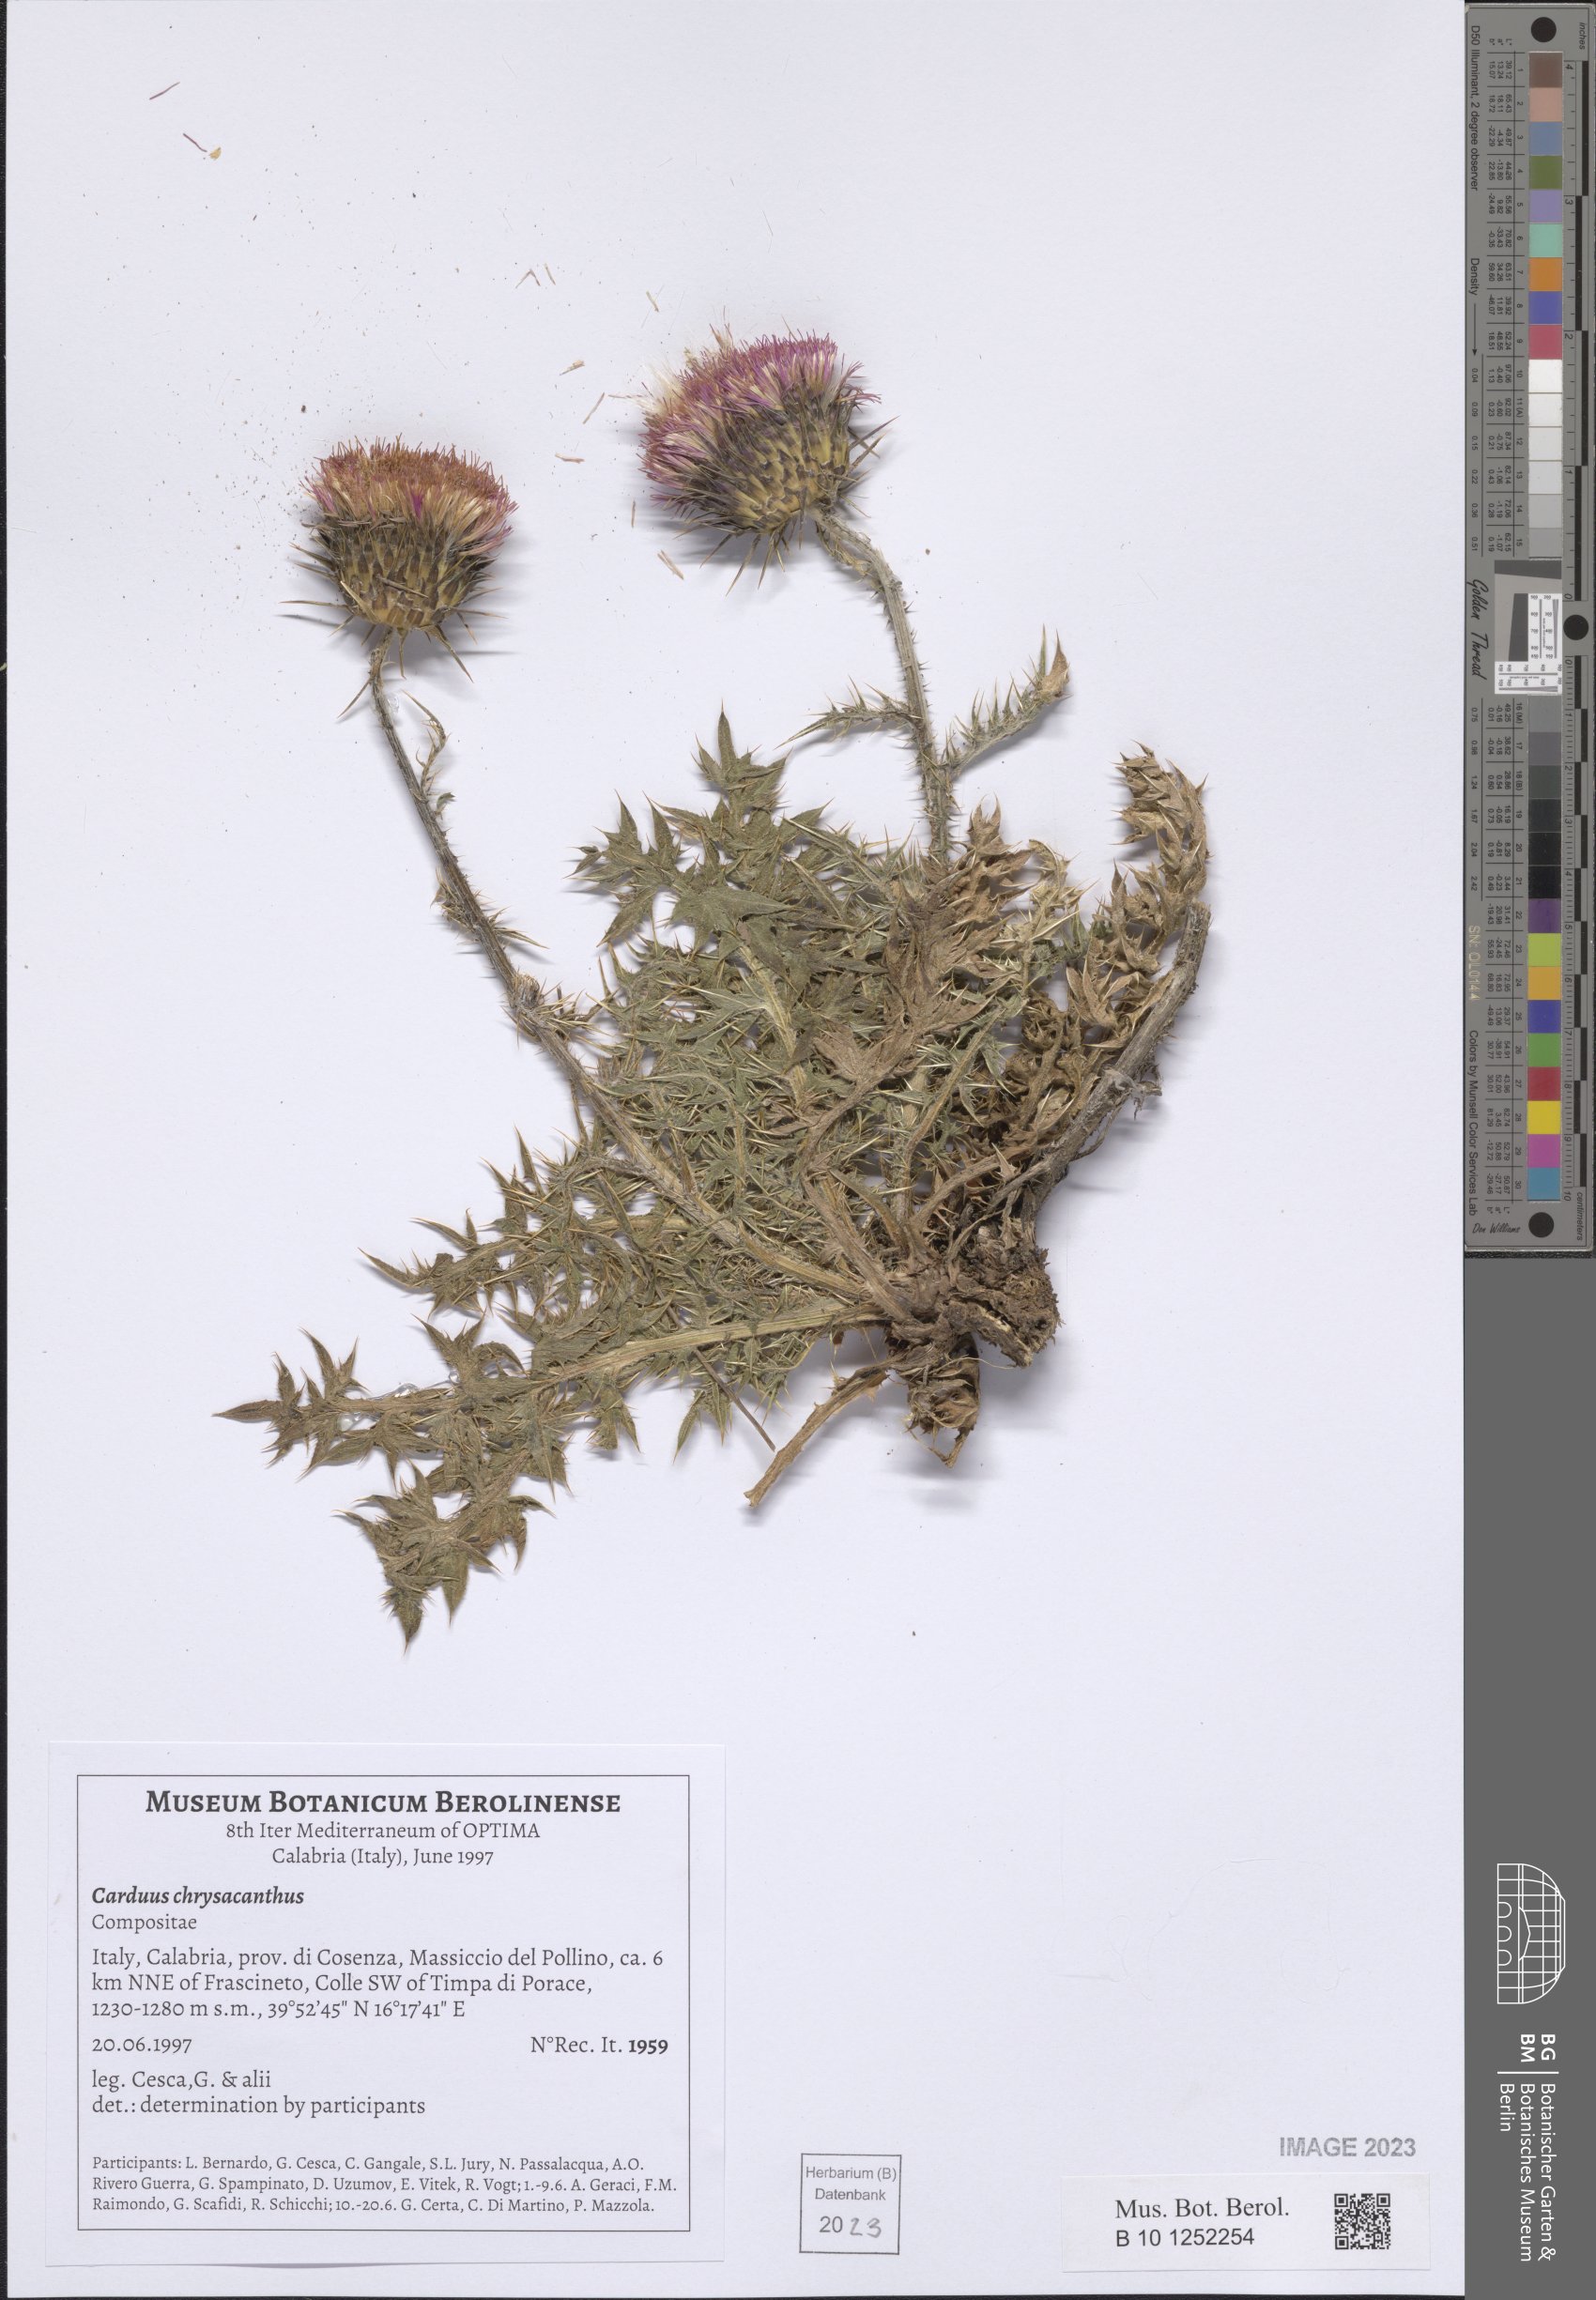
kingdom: Plantae
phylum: Tracheophyta
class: Magnoliopsida
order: Asterales
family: Asteraceae
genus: Carduus
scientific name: Carduus chrysacanthus
